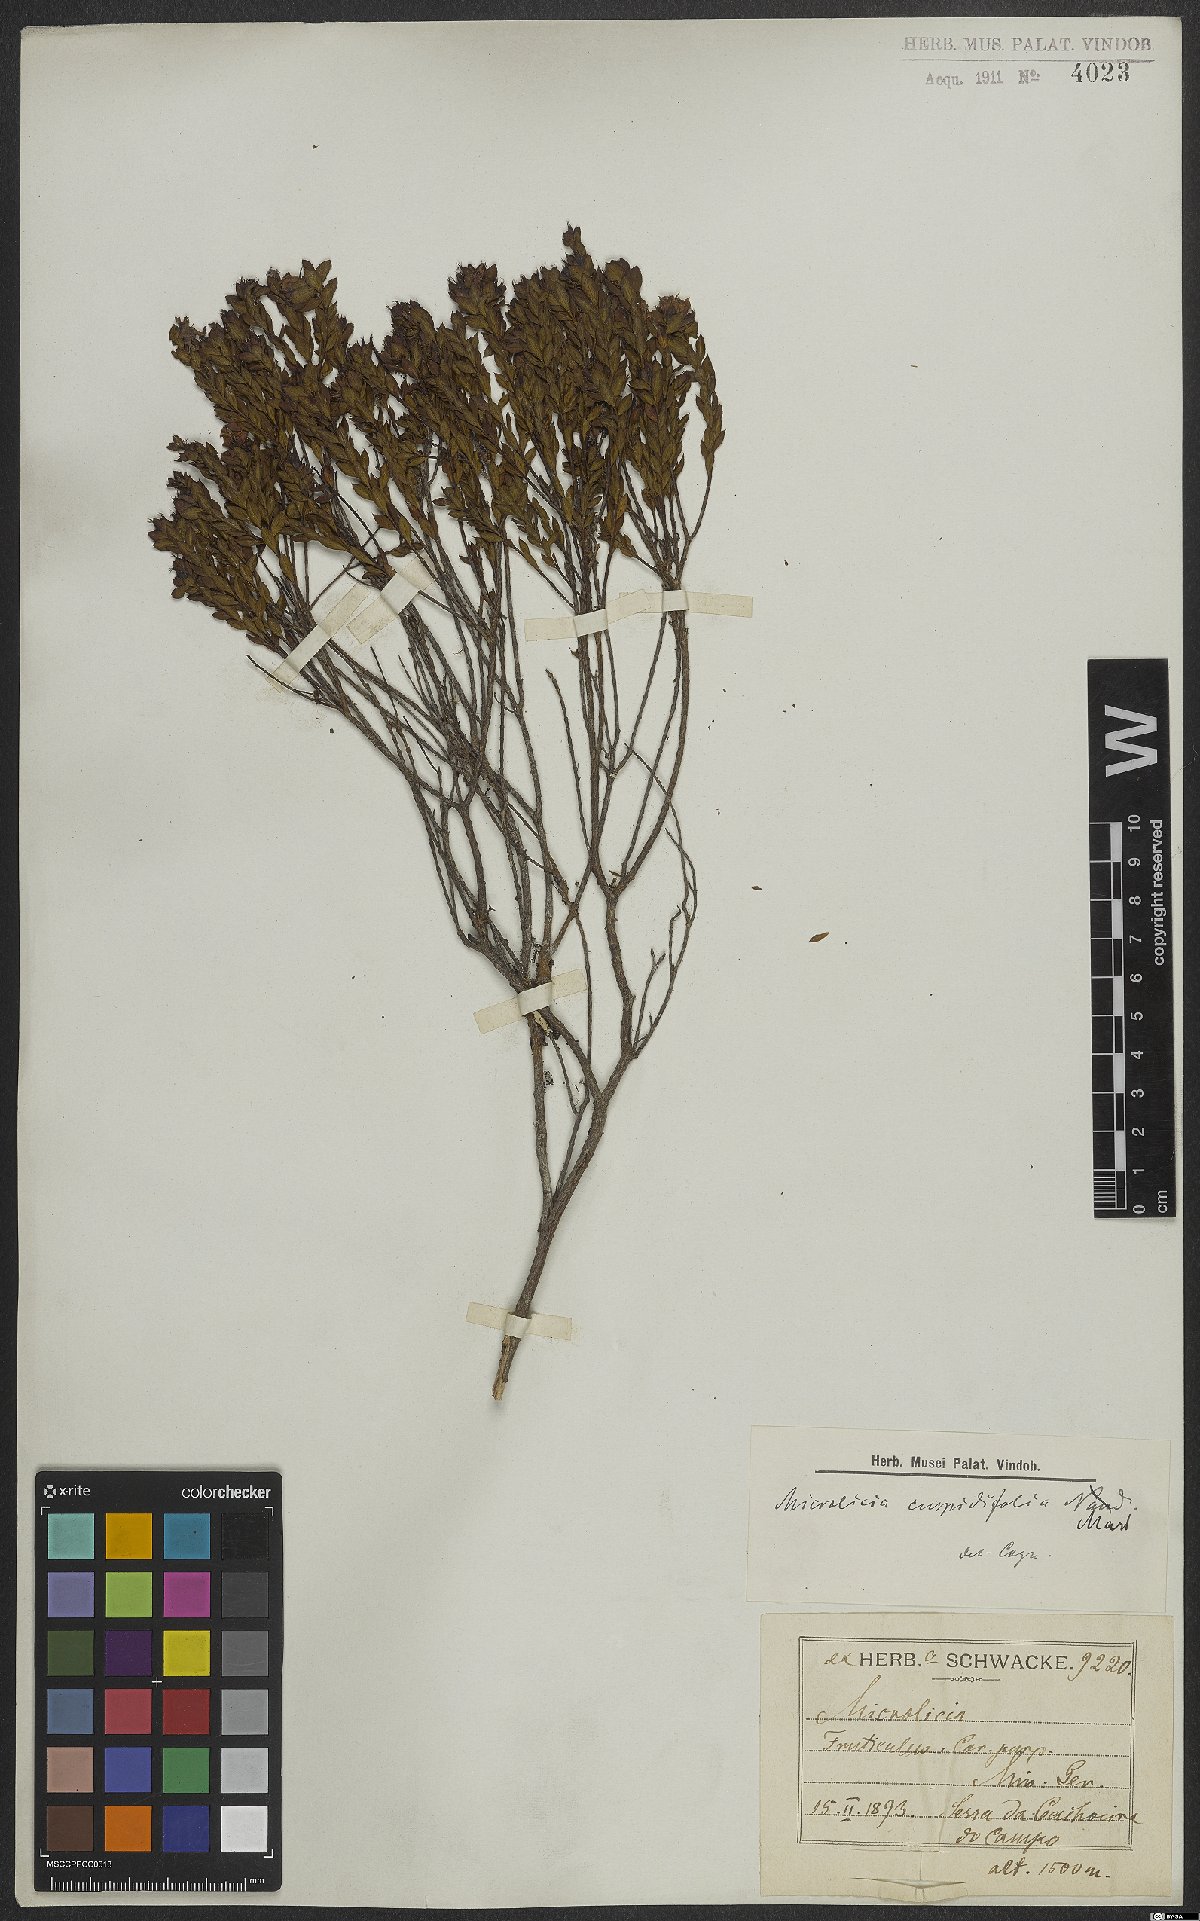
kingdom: Plantae
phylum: Tracheophyta
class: Magnoliopsida
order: Myrtales
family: Melastomataceae
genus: Microlicia
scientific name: Microlicia cuspidifolia
